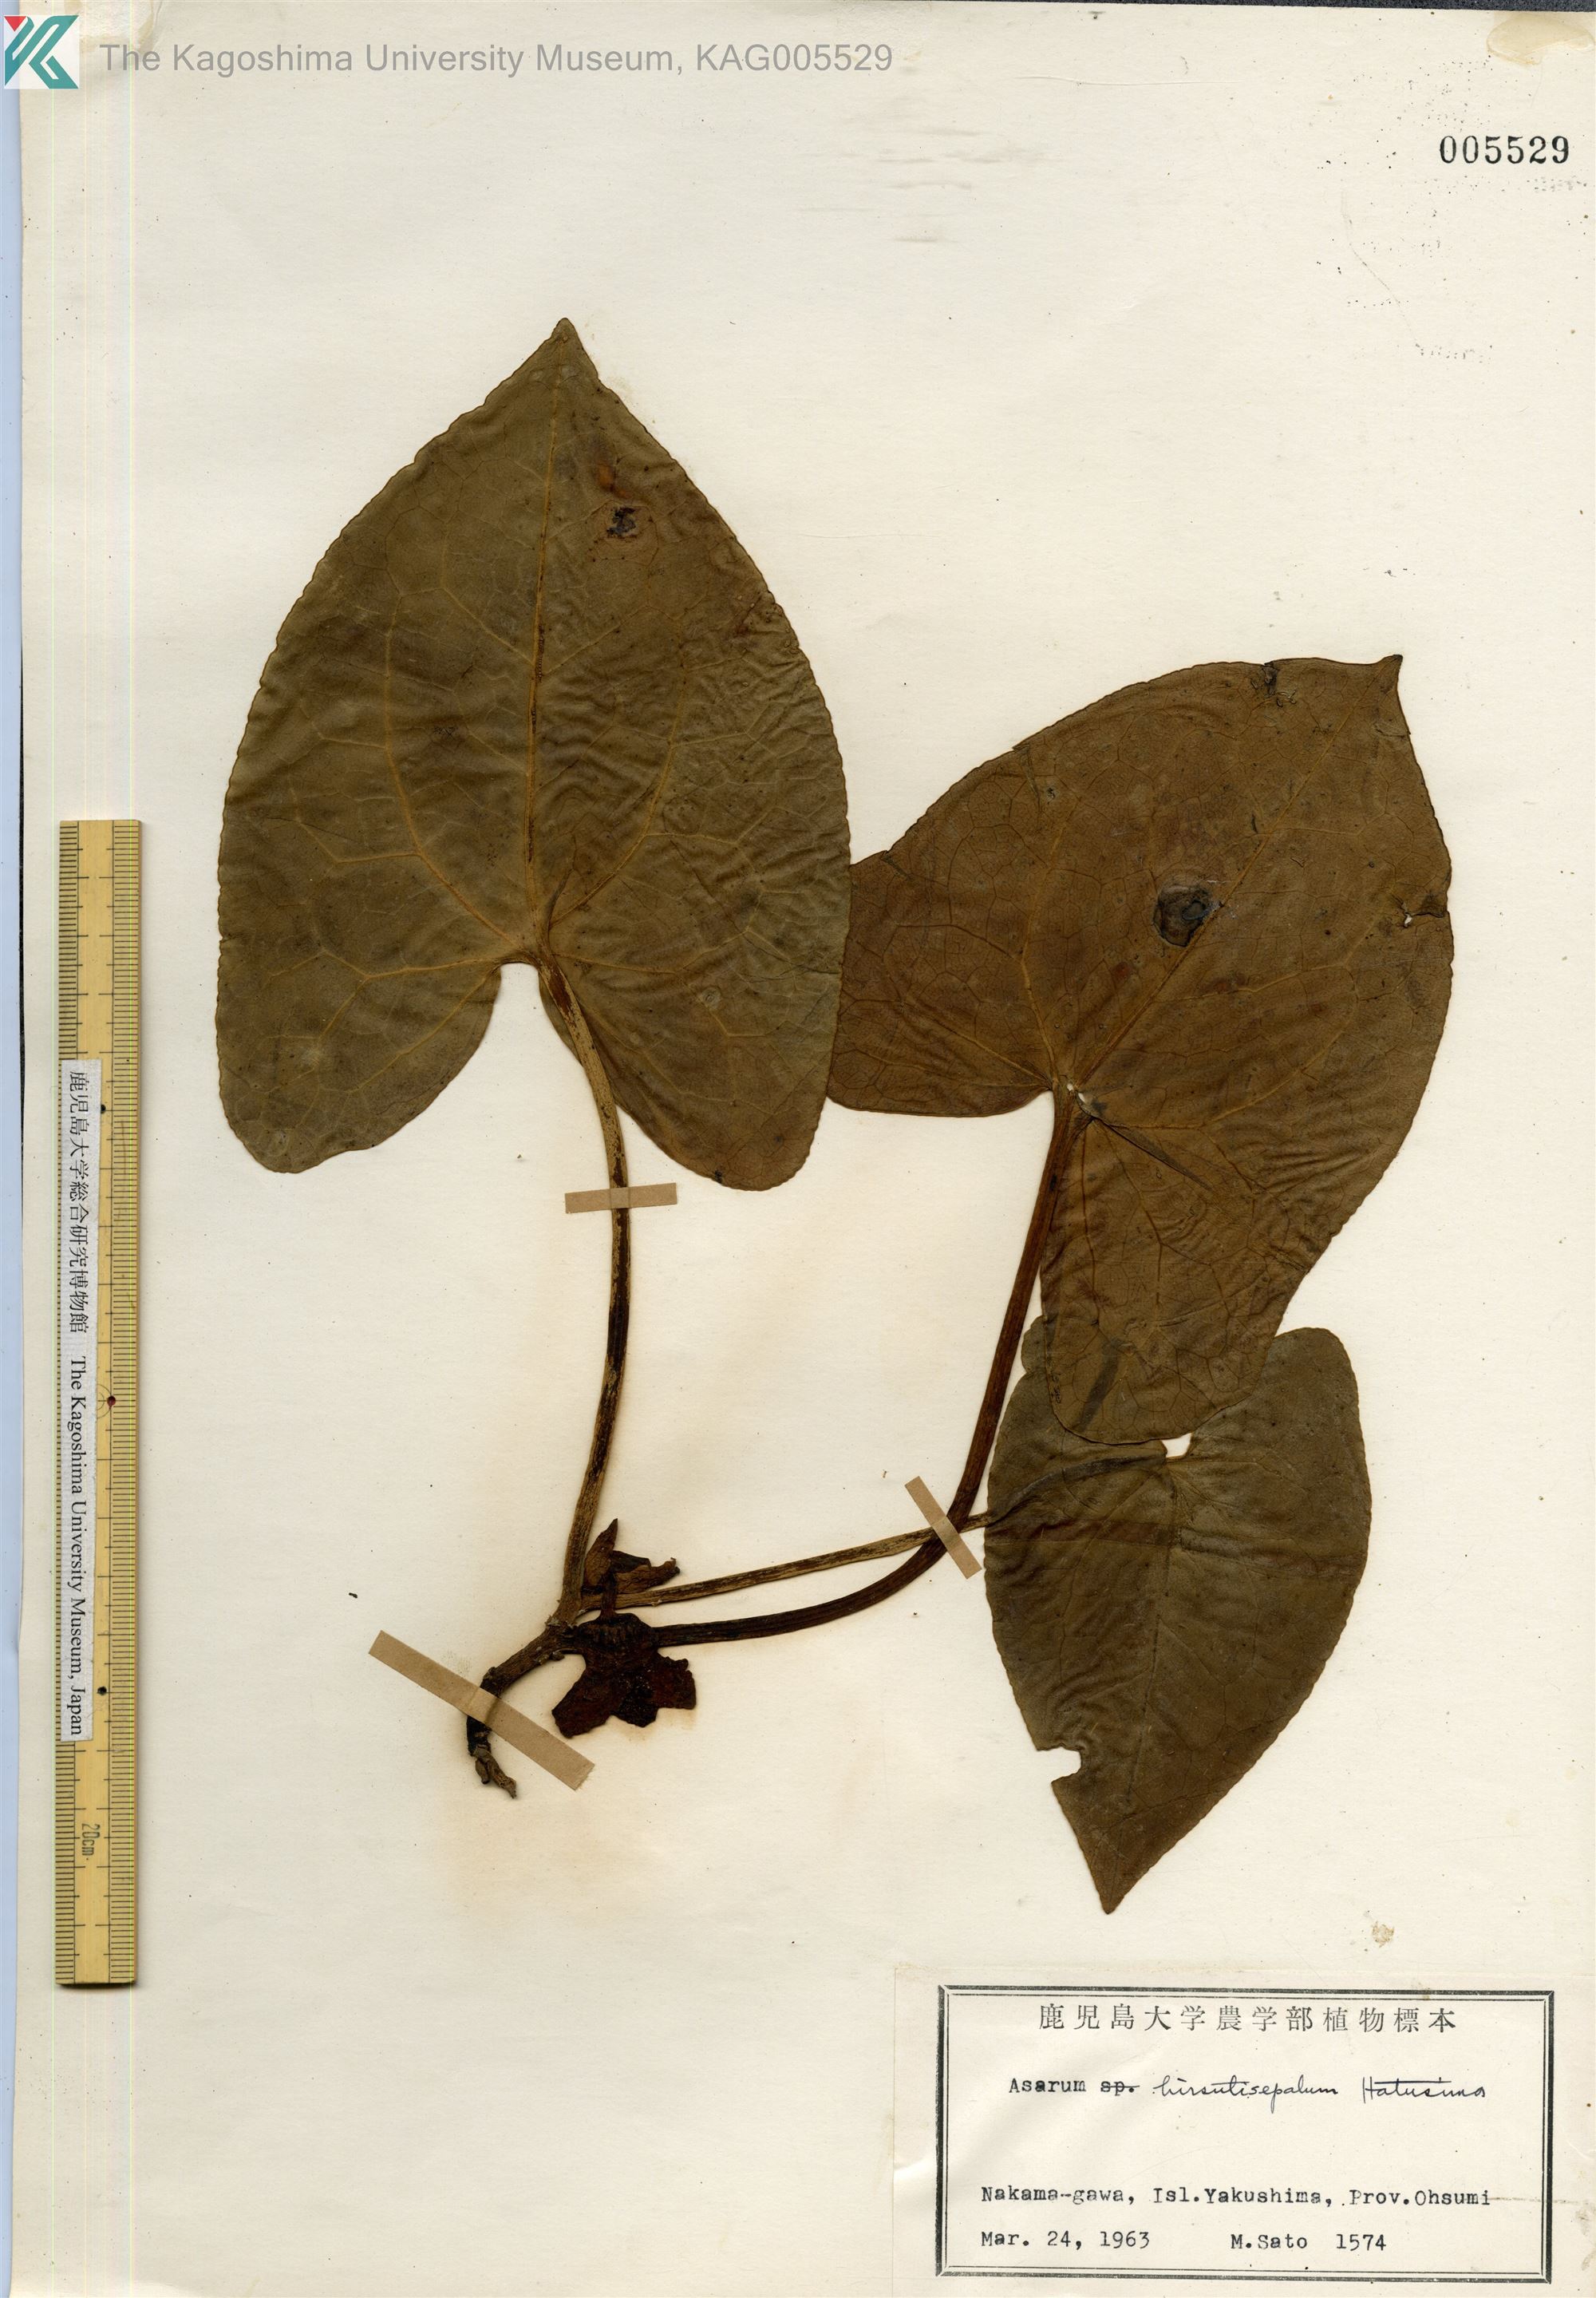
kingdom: Plantae
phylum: Tracheophyta
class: Magnoliopsida
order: Piperales
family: Aristolochiaceae
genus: Asarum
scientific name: Asarum yakusimense
